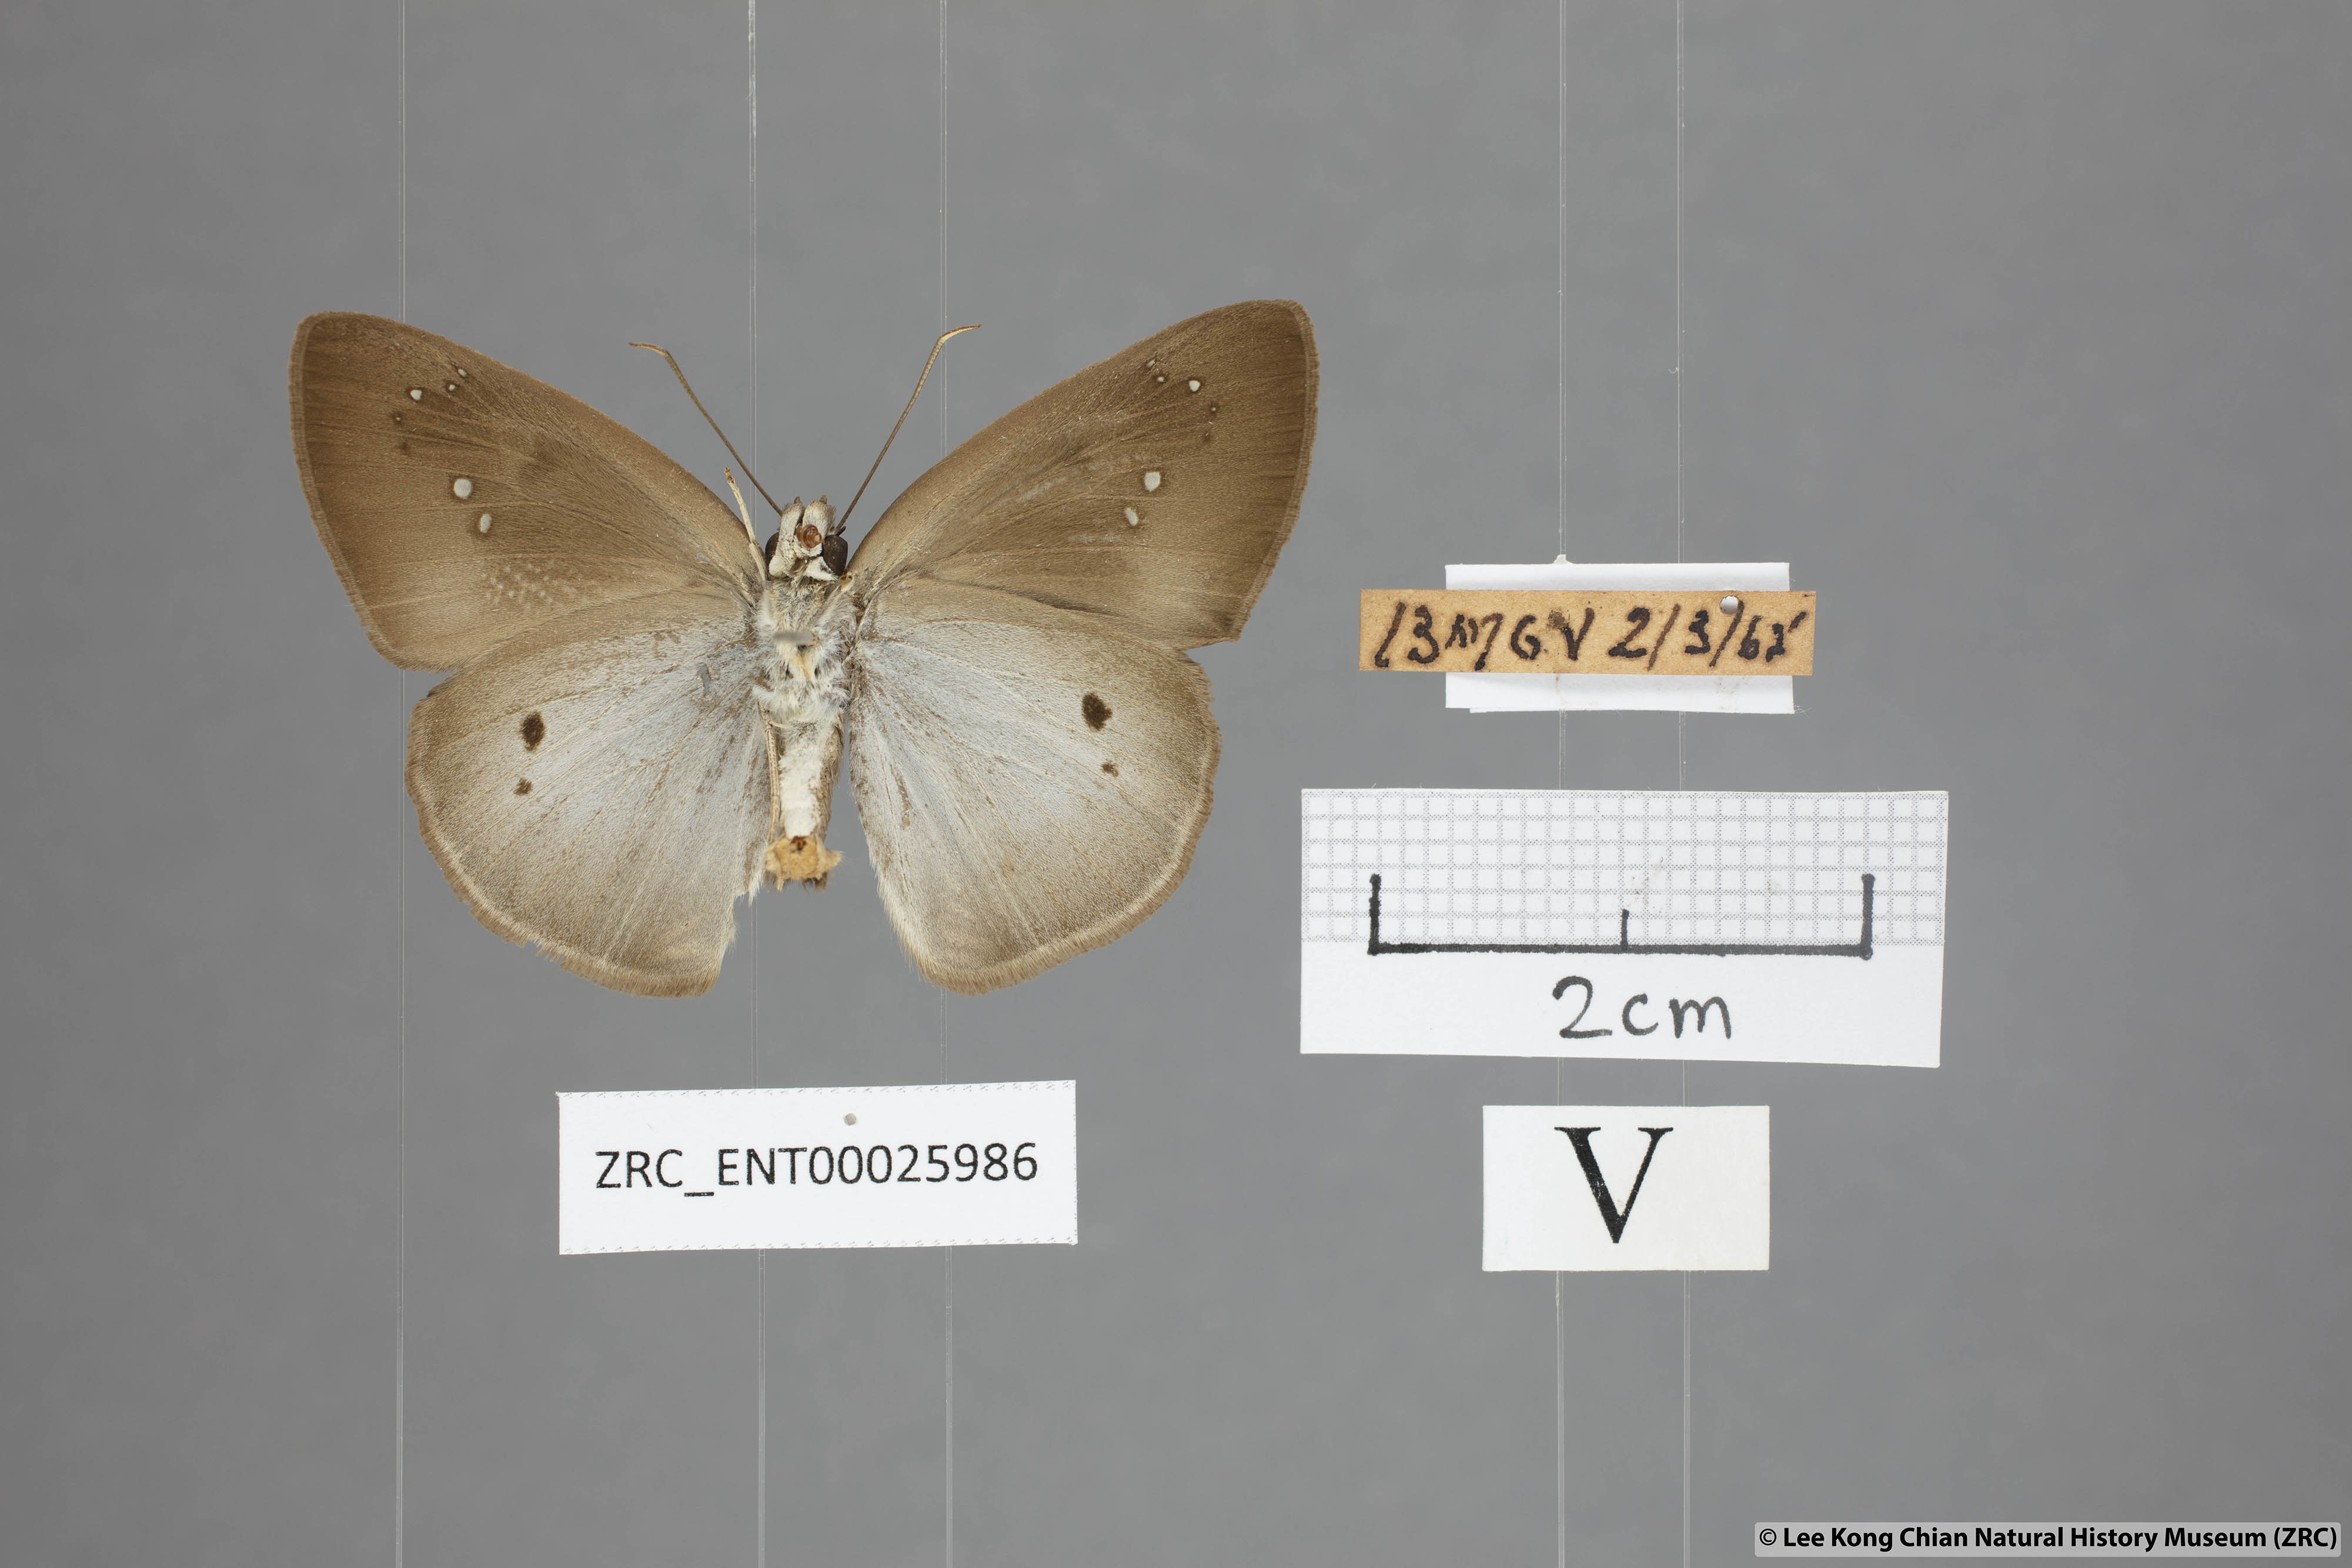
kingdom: Animalia
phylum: Arthropoda
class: Insecta
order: Lepidoptera
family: Hesperiidae
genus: Tagiades
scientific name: Tagiades japetus
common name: Pied flat
